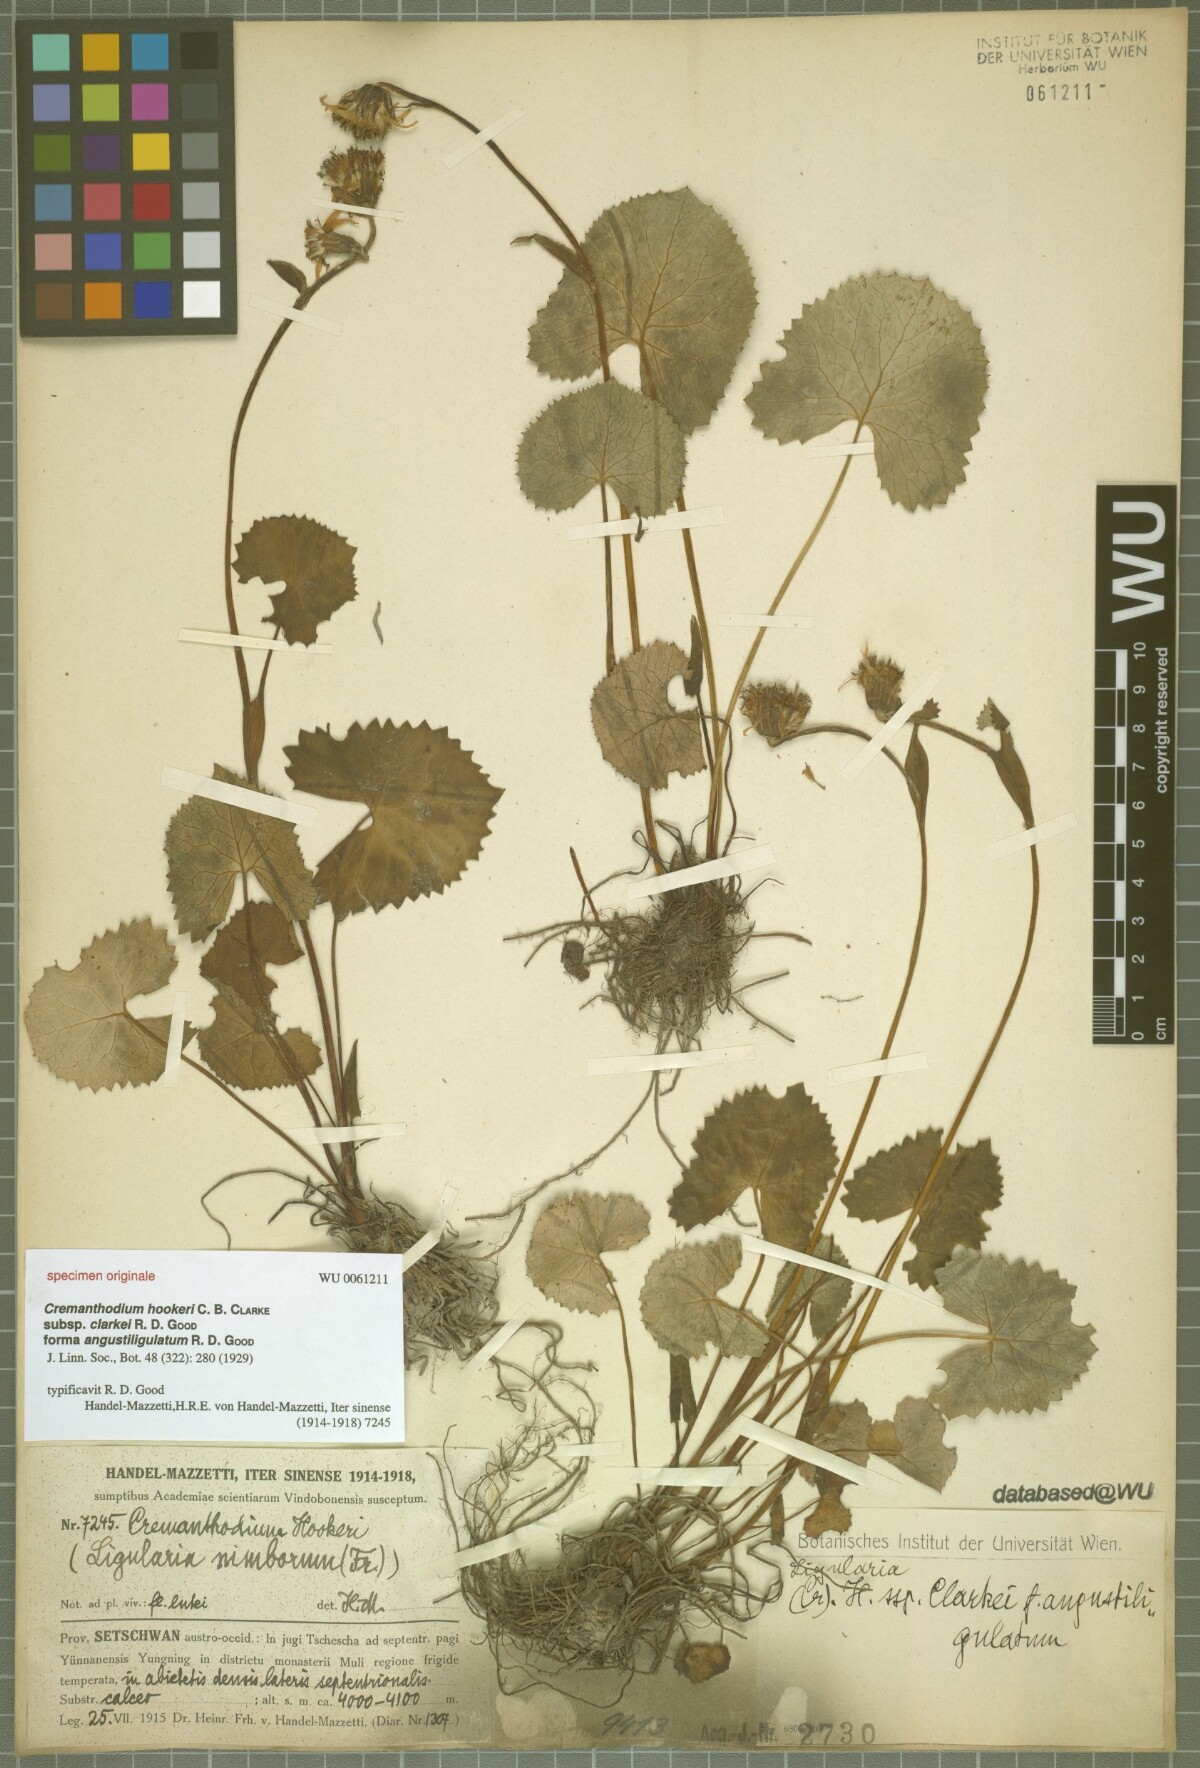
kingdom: Plantae
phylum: Tracheophyta
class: Magnoliopsida
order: Asterales
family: Asteraceae
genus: Ligularia
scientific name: Ligularia hookeri
